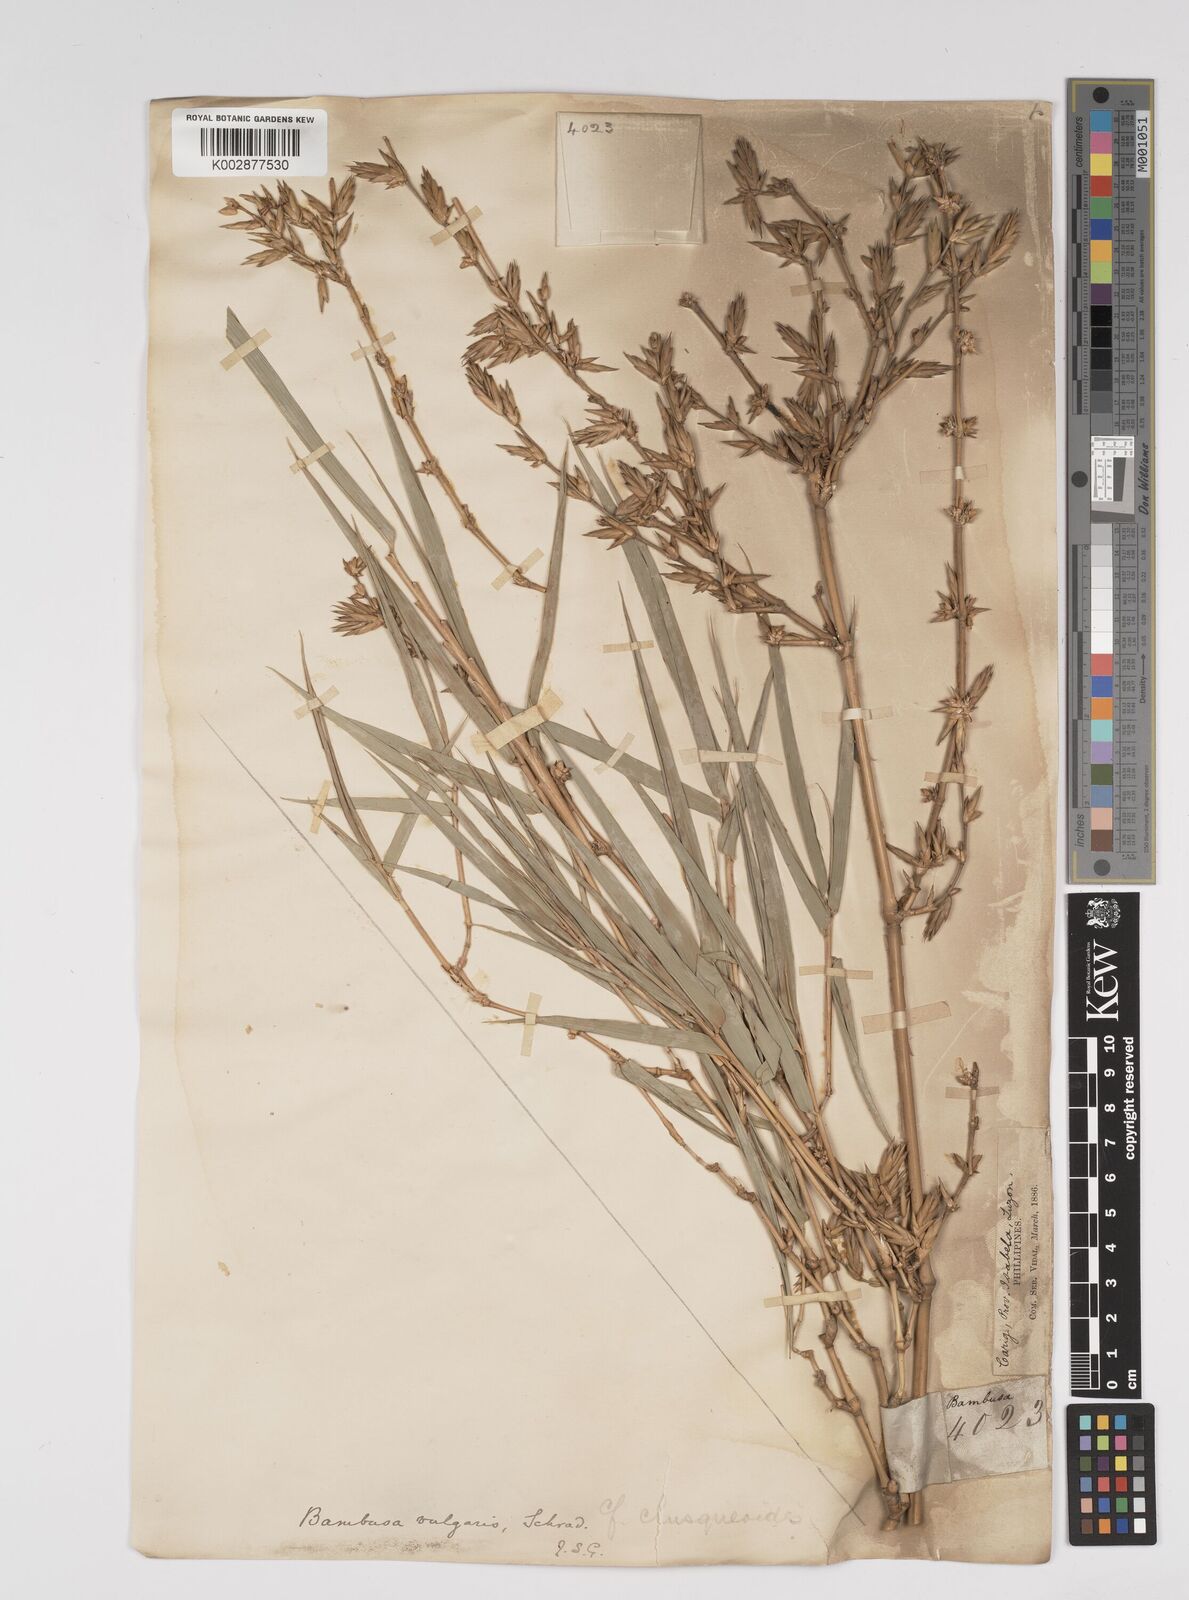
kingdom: Plantae
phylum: Tracheophyta
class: Liliopsida
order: Poales
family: Poaceae
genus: Bambusa
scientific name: Bambusa vulgaris
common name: Common bamboo
